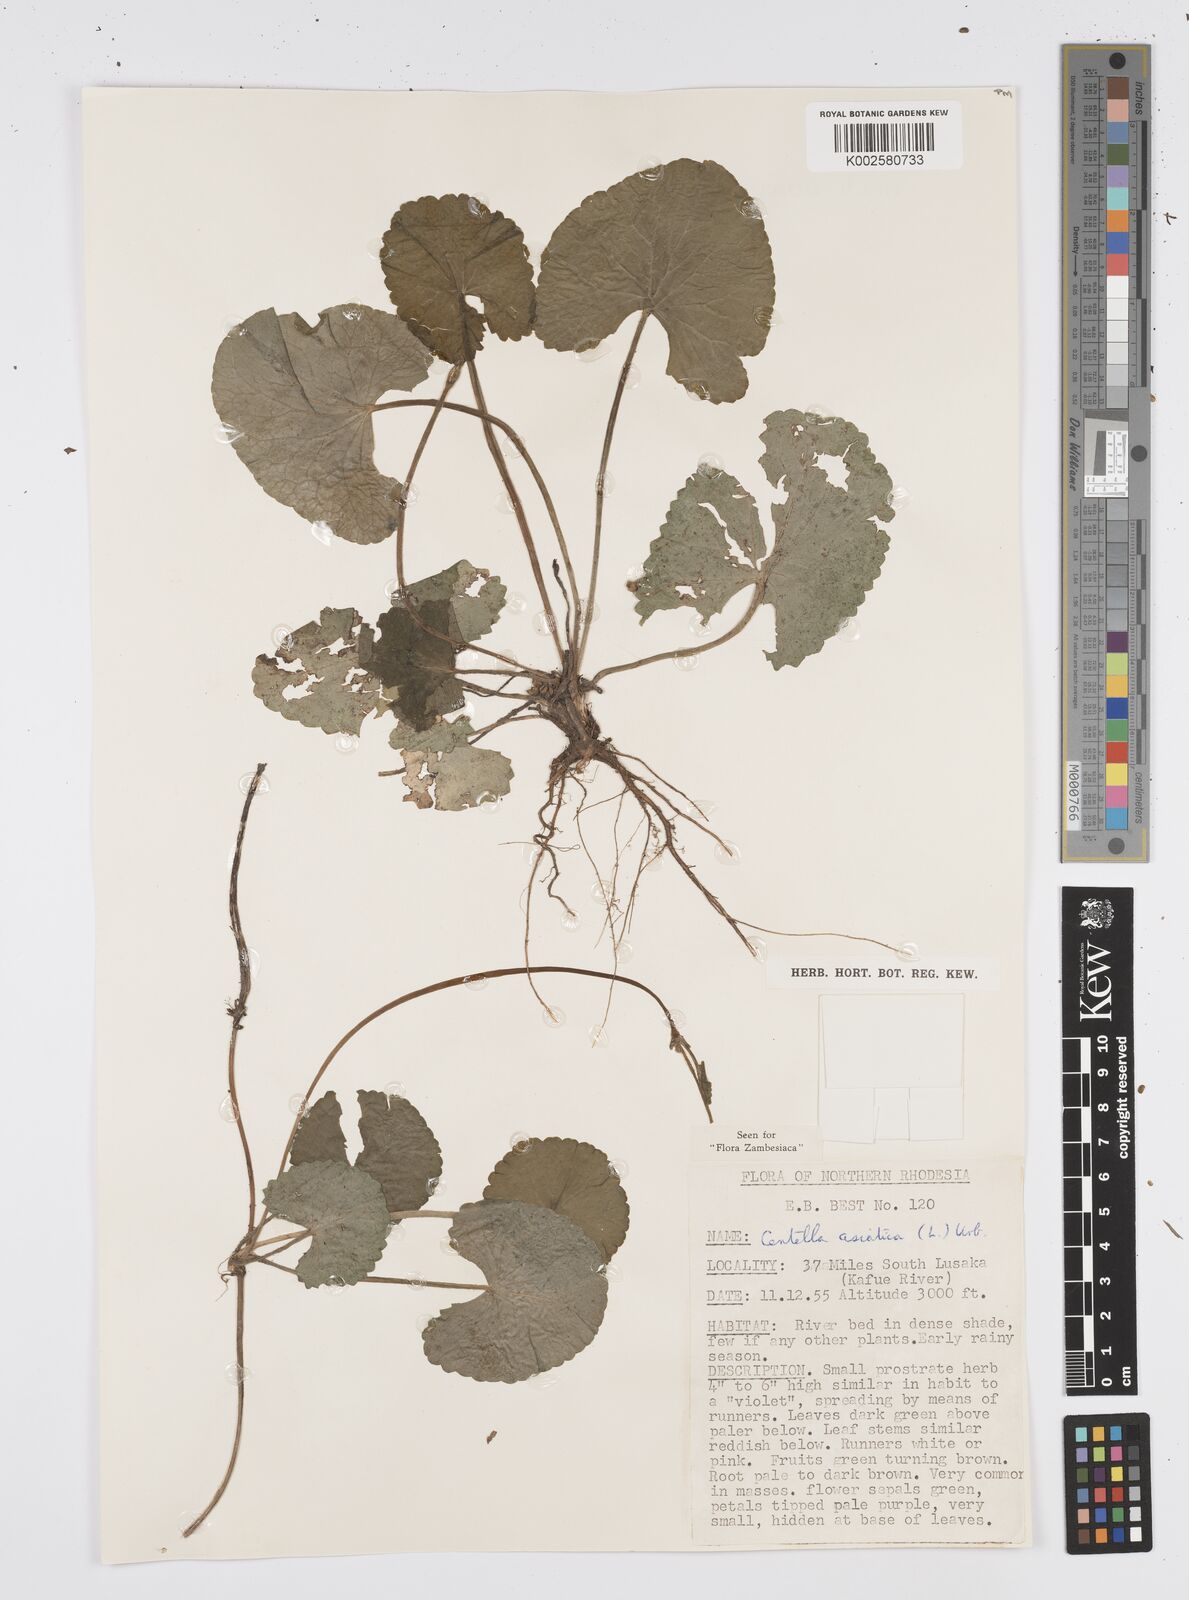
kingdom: Plantae
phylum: Tracheophyta
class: Magnoliopsida
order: Apiales
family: Apiaceae
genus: Centella
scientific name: Centella asiatica
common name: Spadeleaf
